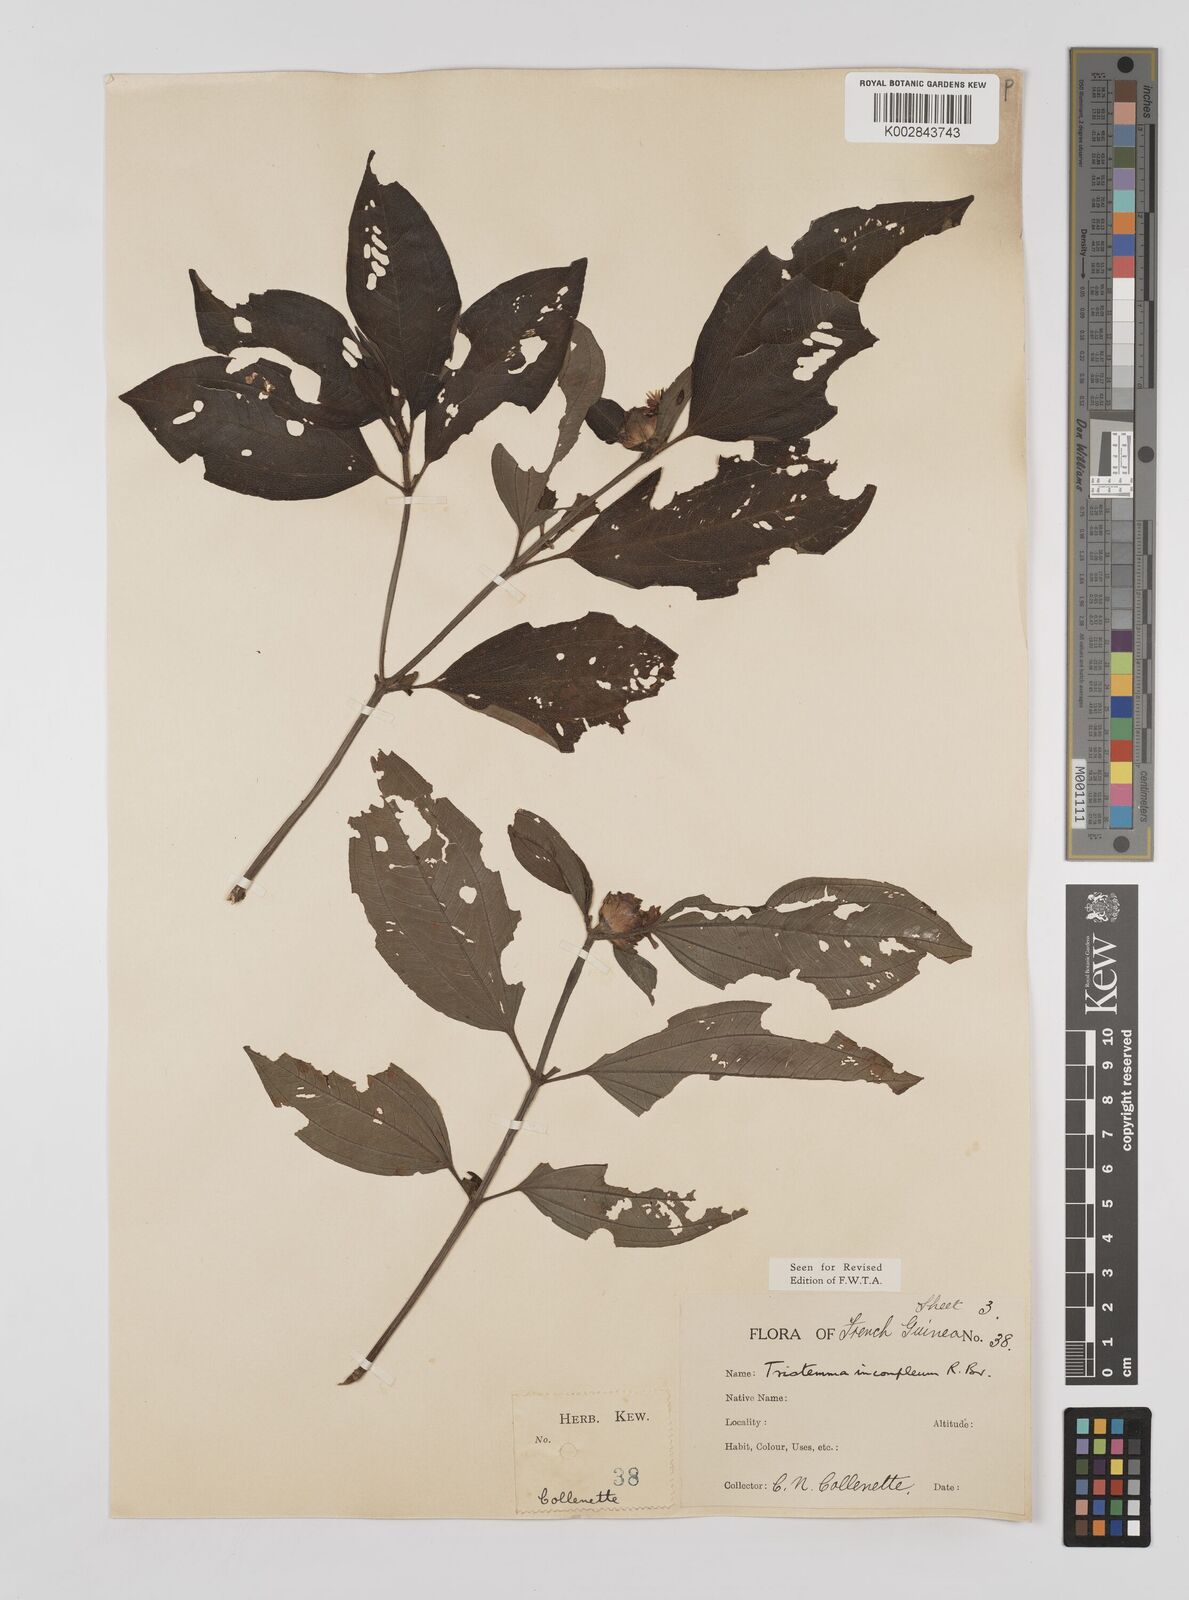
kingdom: Plantae
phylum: Tracheophyta
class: Magnoliopsida
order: Myrtales
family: Melastomataceae
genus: Tristemma
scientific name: Tristemma mauritianum
